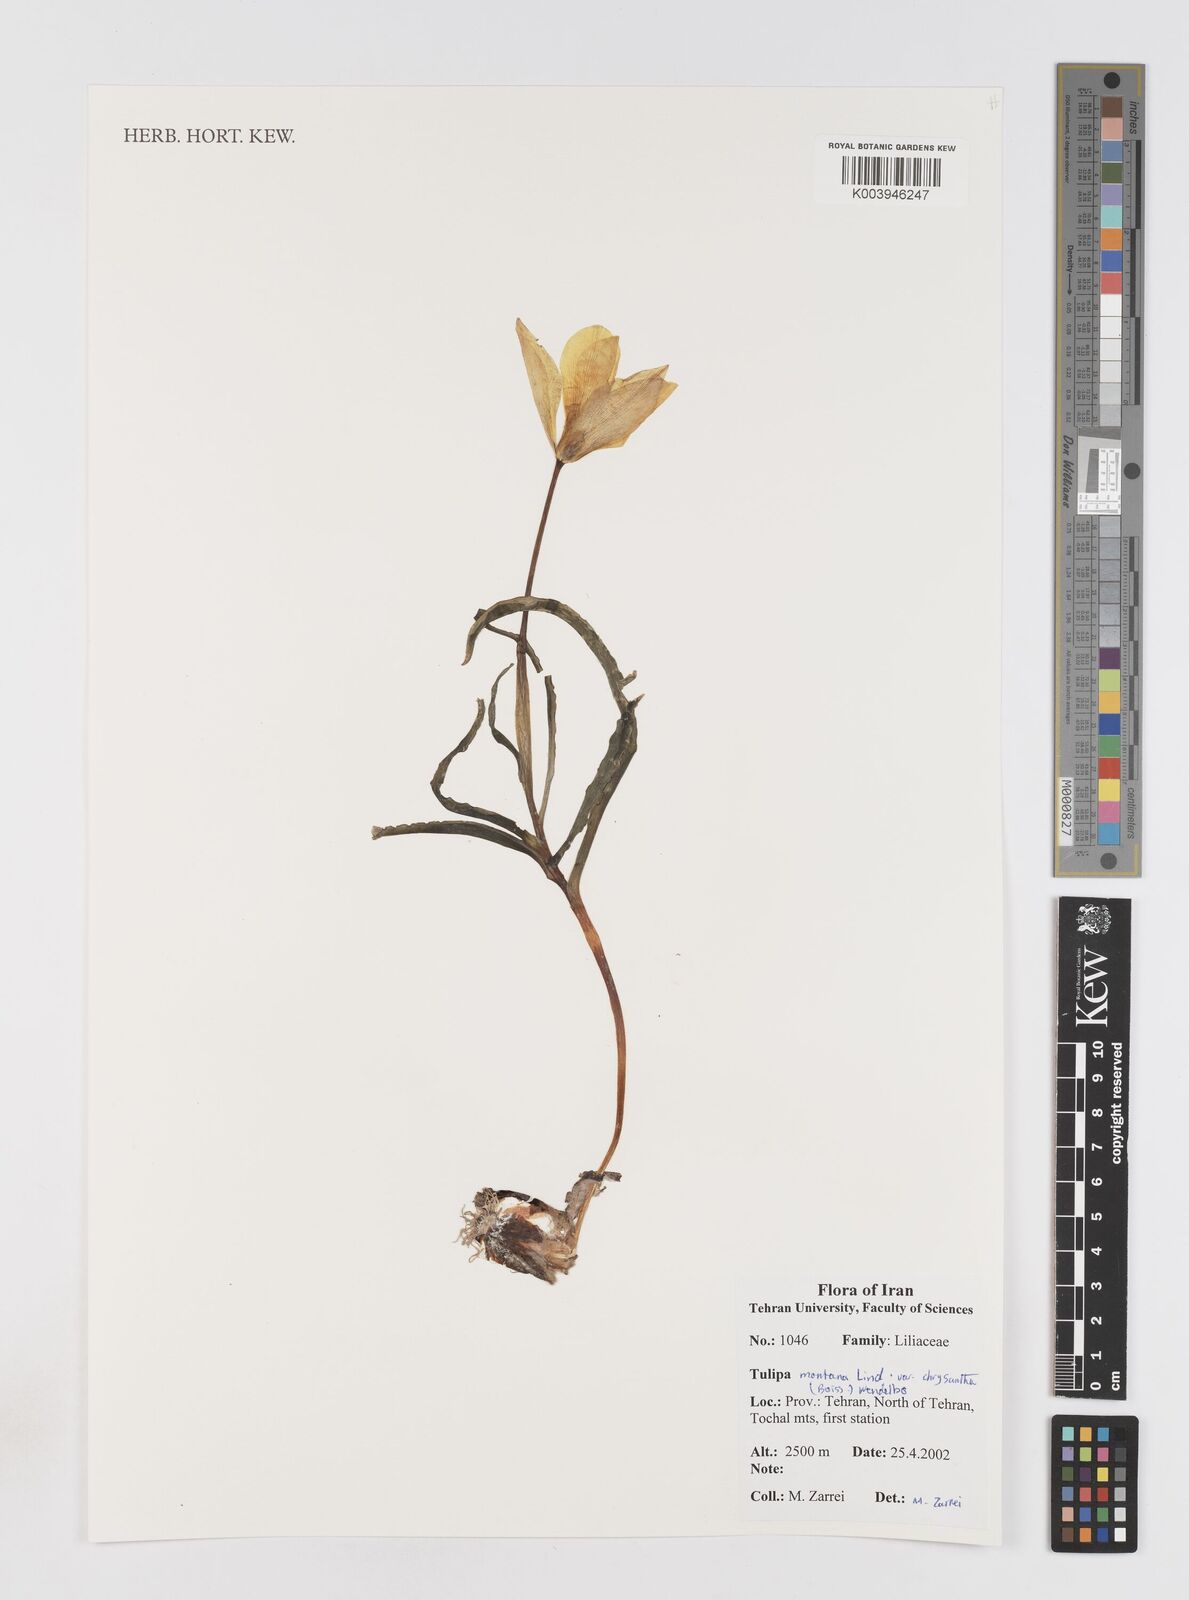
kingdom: Plantae
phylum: Tracheophyta
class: Liliopsida
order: Liliales
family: Liliaceae
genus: Tulipa
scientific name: Tulipa montana
